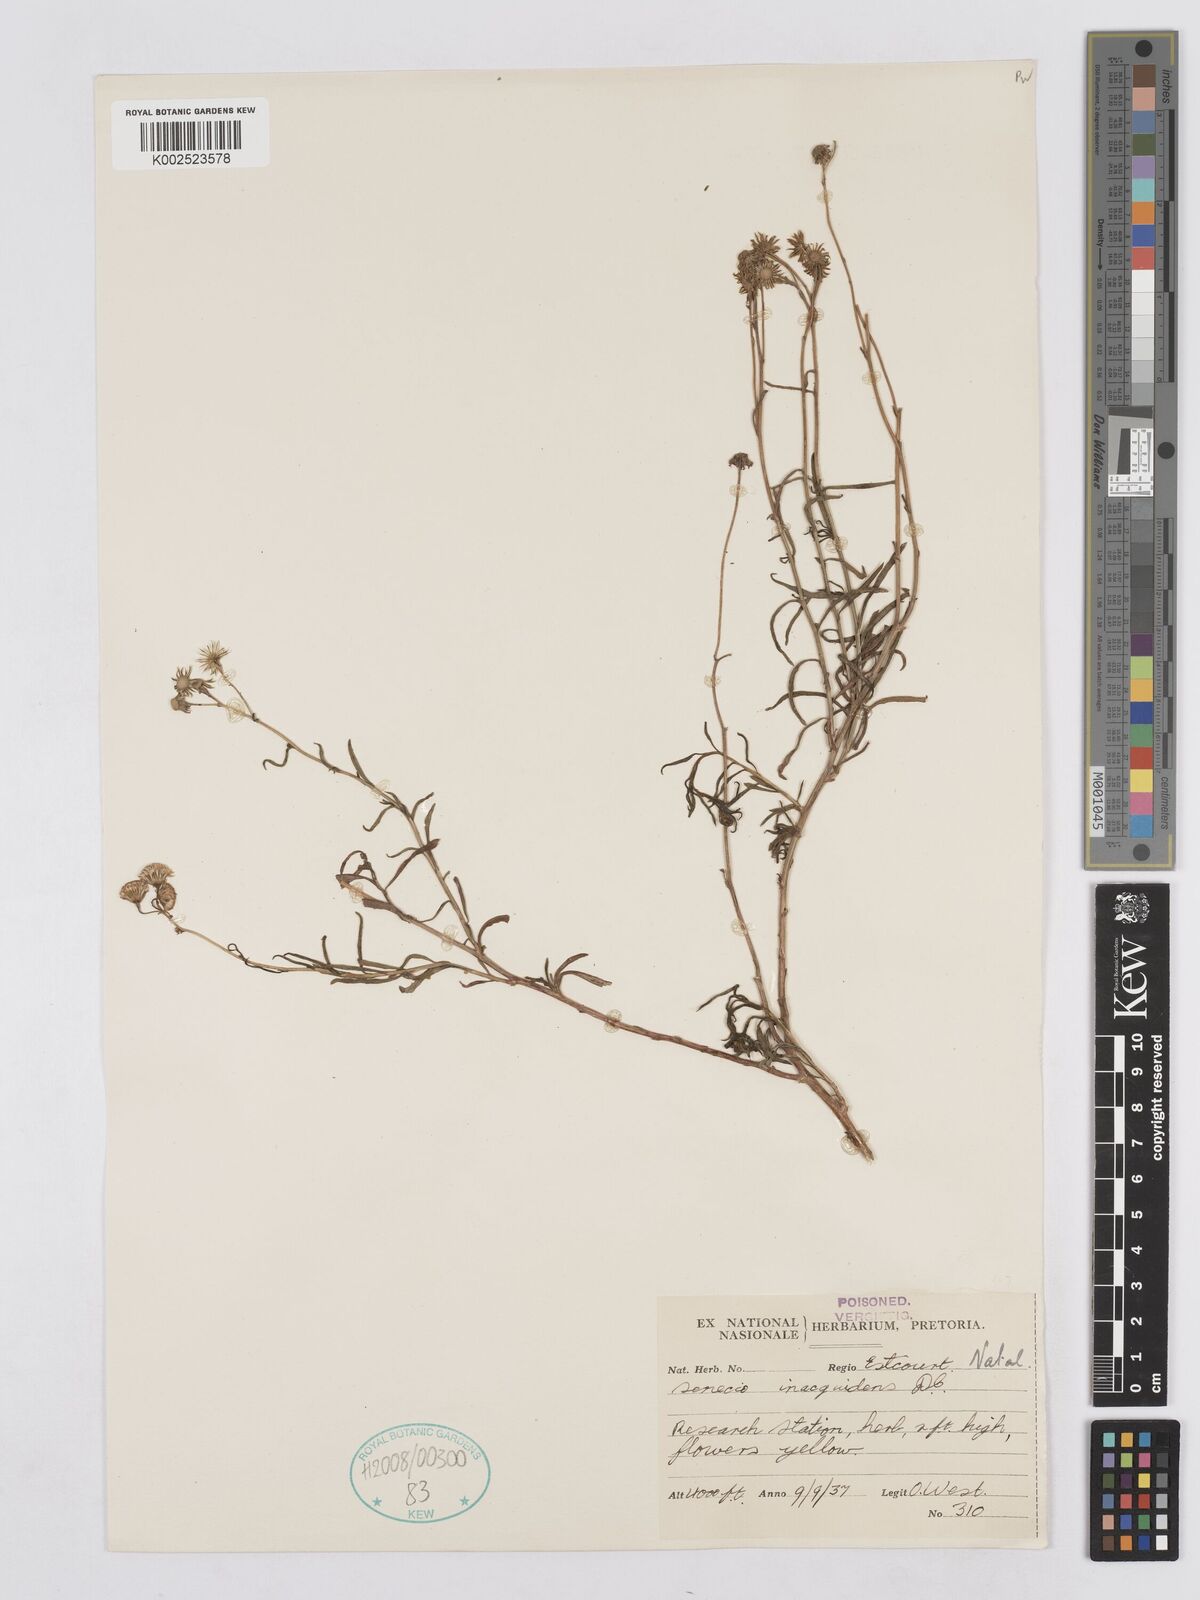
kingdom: Plantae
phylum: Tracheophyta
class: Magnoliopsida
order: Asterales
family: Asteraceae
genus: Senecio
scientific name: Senecio inaequidens
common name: Narrow-leaved ragwort
